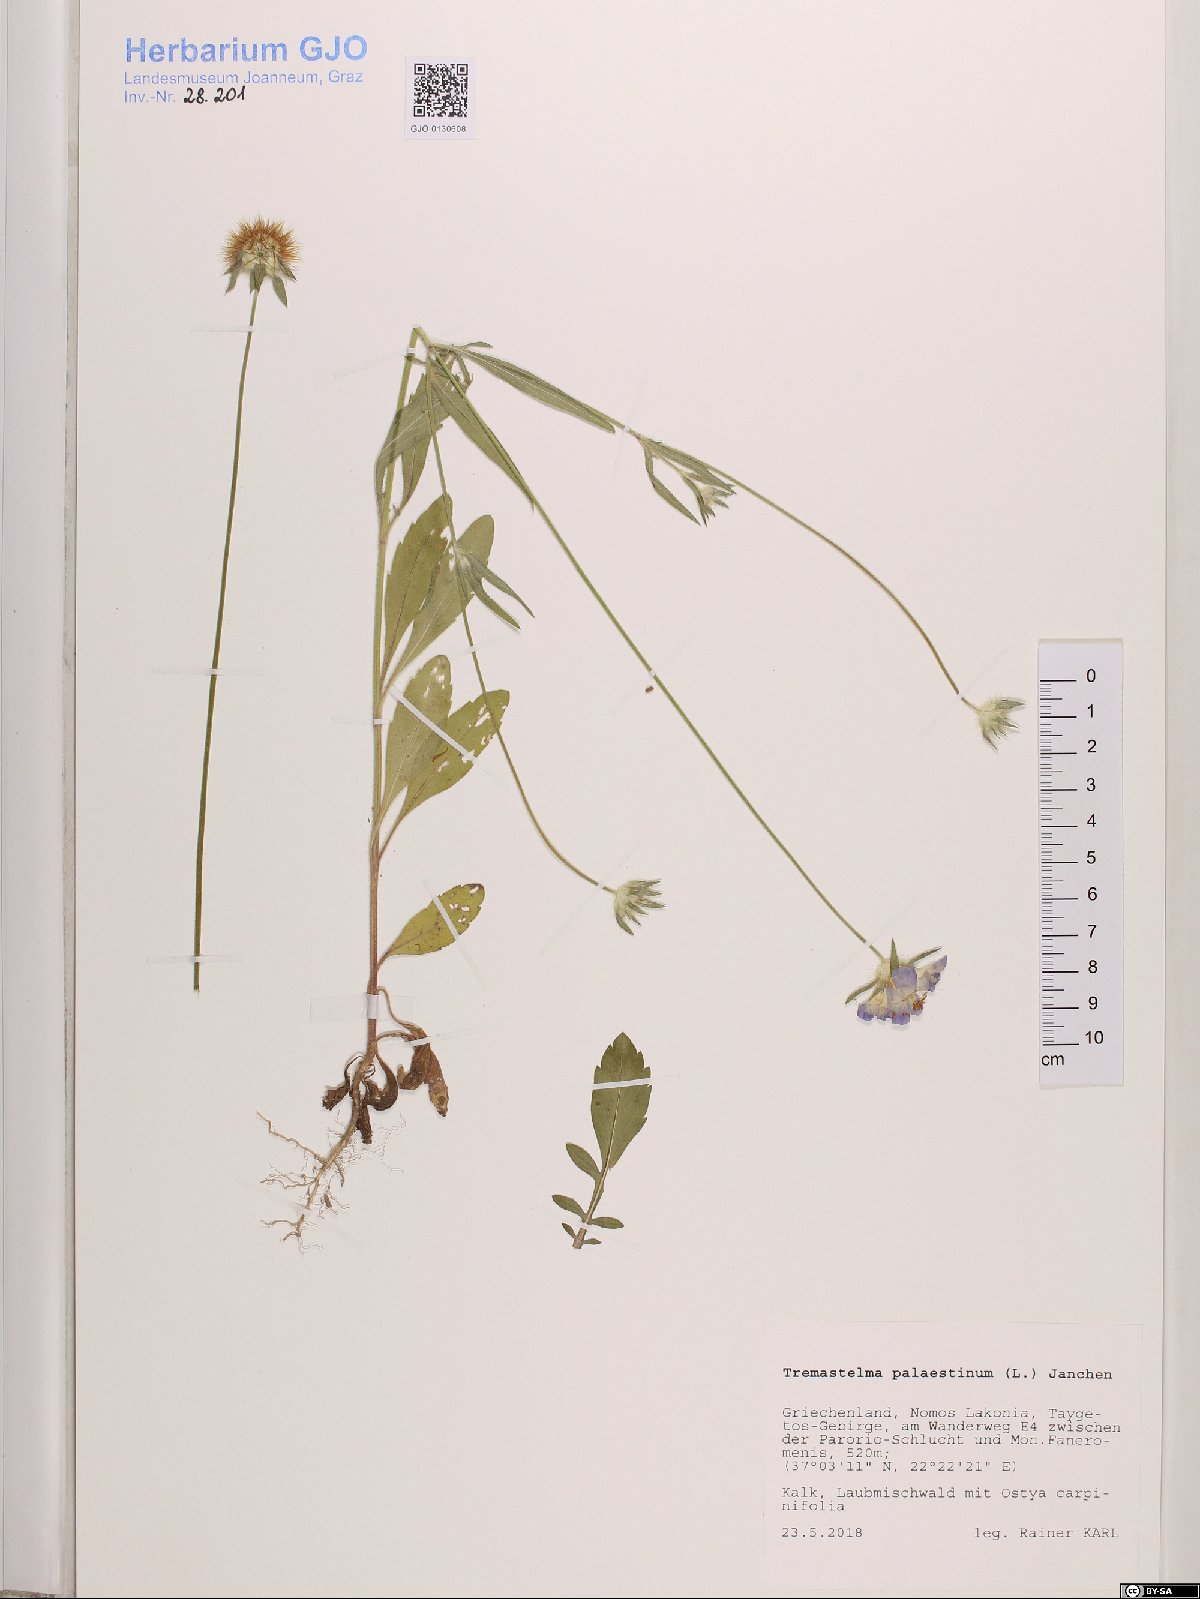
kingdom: Plantae
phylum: Tracheophyta
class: Magnoliopsida
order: Dipsacales
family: Caprifoliaceae
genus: Lomelosia
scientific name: Lomelosia palaestina
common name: Balkan pincushions
